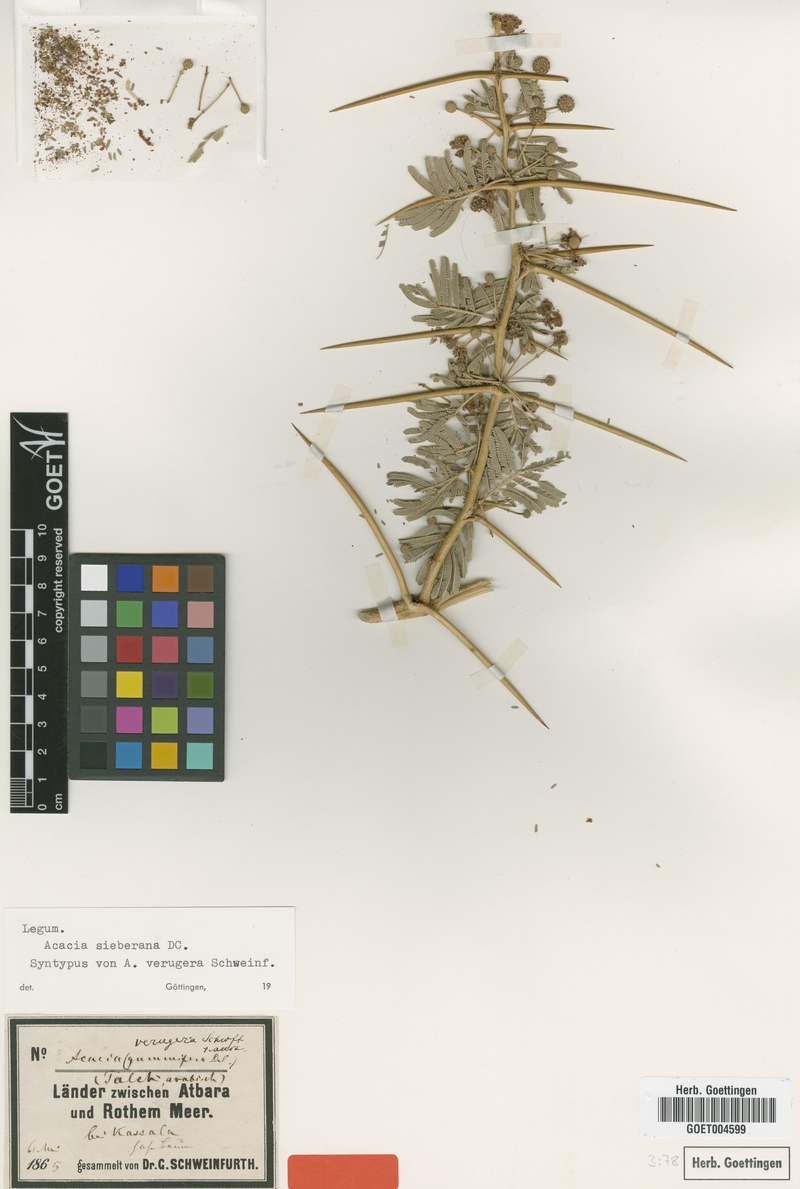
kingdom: Plantae
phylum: Tracheophyta
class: Magnoliopsida
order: Fabales
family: Fabaceae
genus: Vachellia
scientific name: Vachellia sieberiana
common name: Flat-topped thorn
